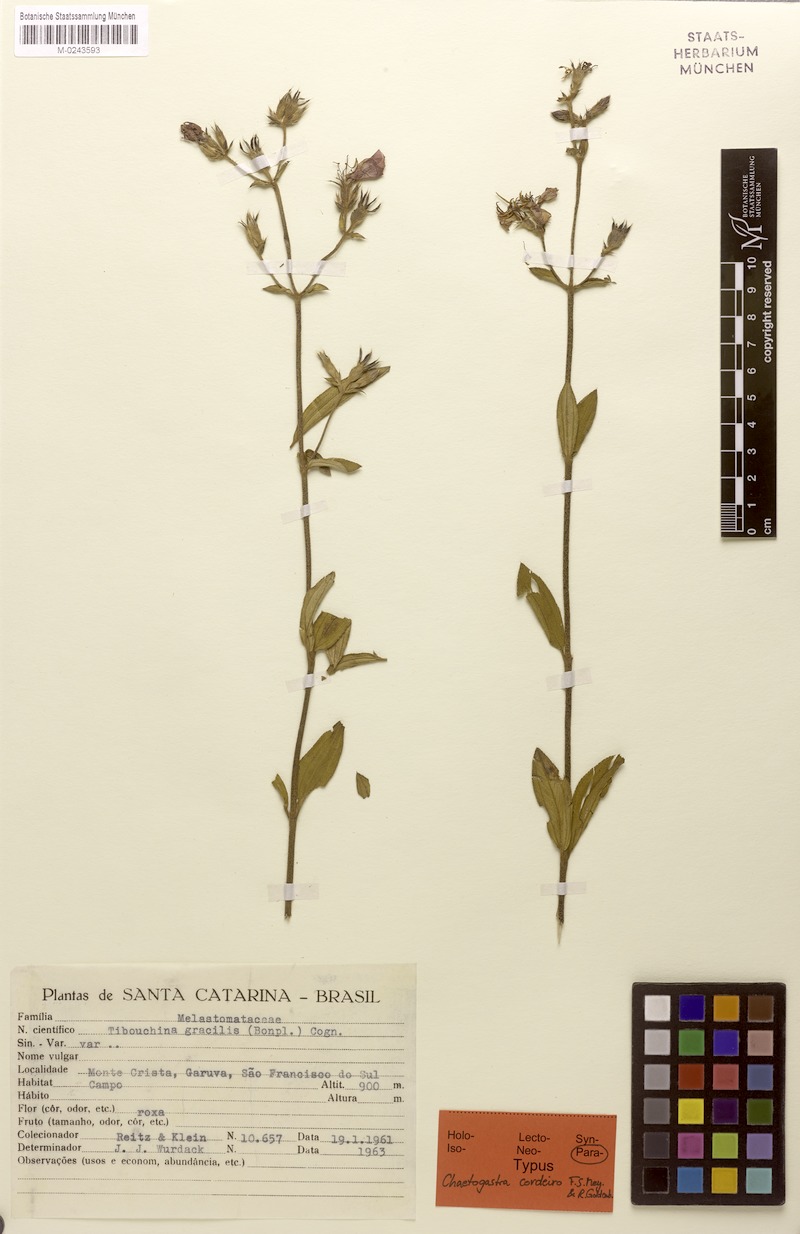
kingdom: Plantae
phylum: Tracheophyta
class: Magnoliopsida
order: Myrtales
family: Melastomataceae
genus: Chaetogastra
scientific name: Chaetogastra cordeiroi
